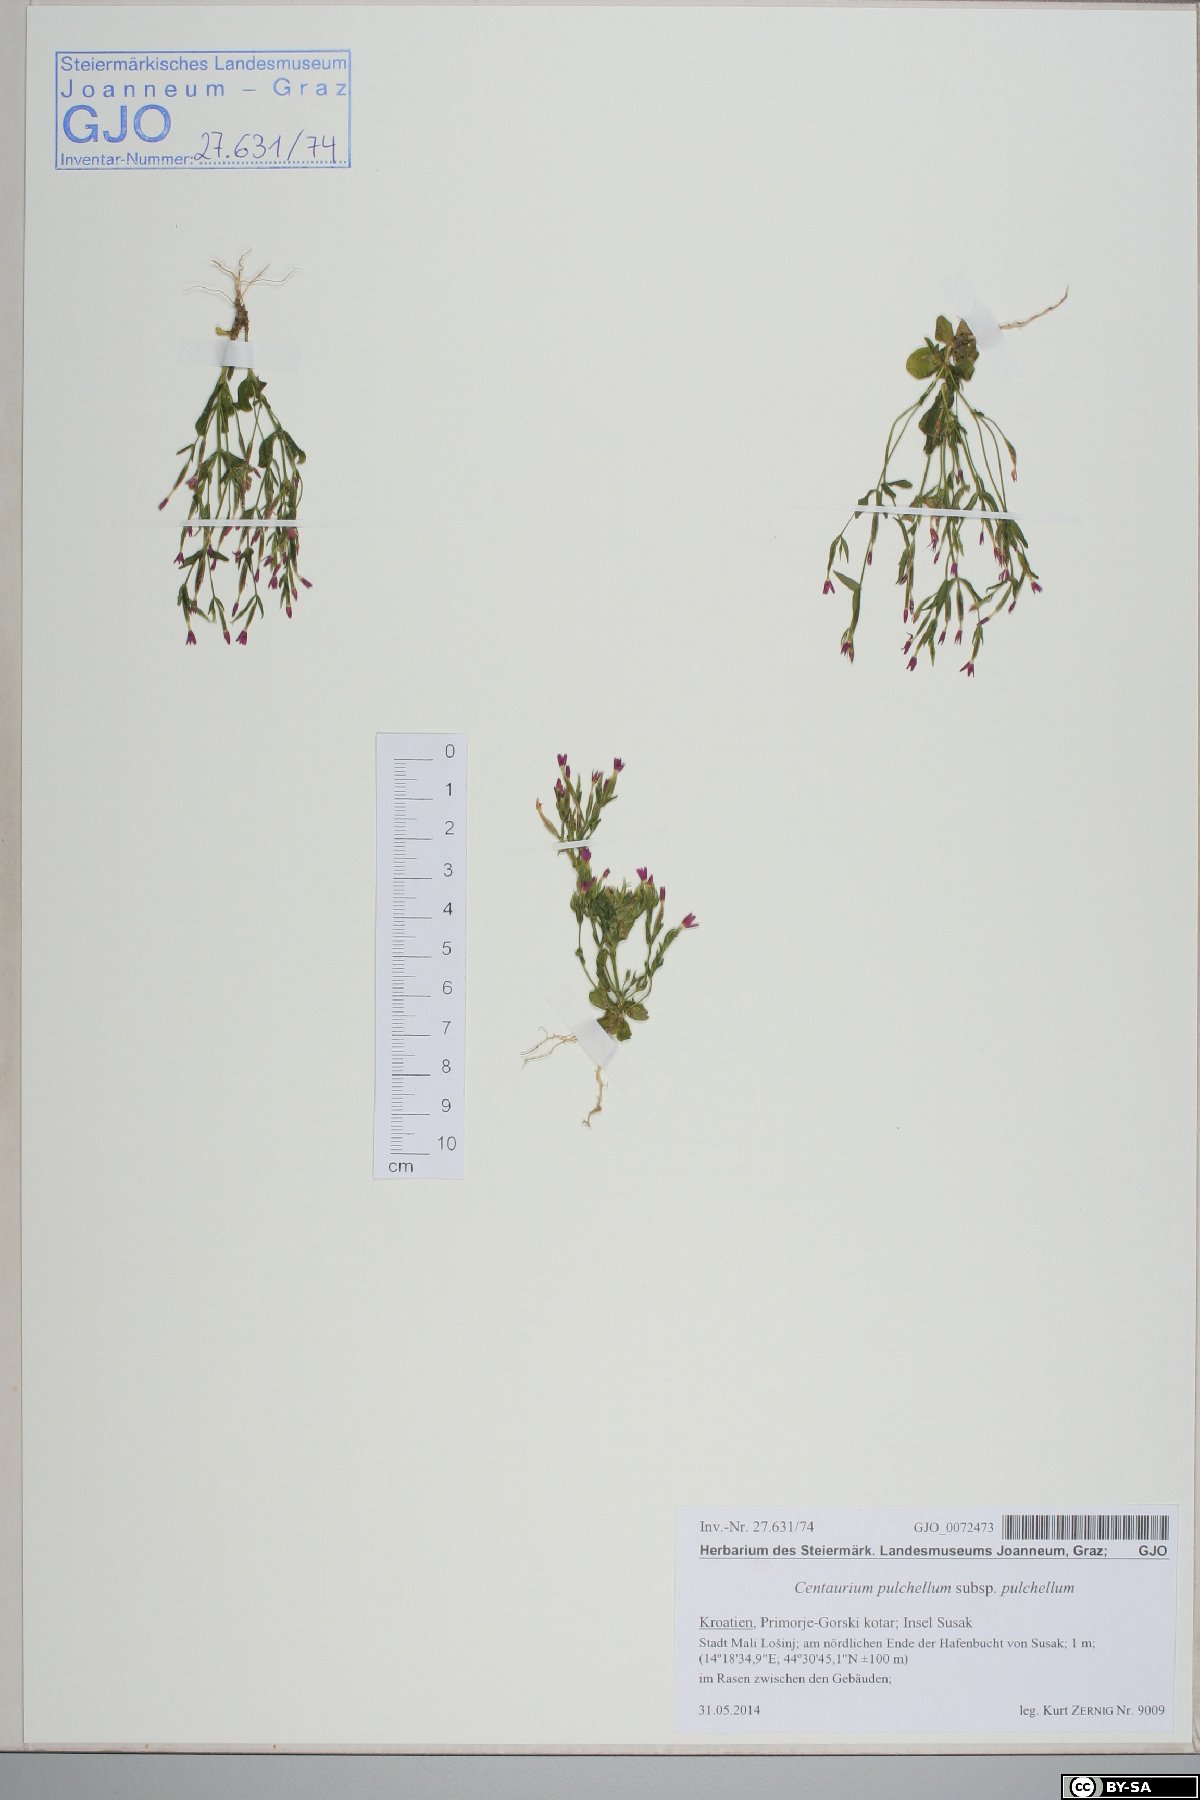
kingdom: Plantae
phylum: Tracheophyta
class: Magnoliopsida
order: Gentianales
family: Gentianaceae
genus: Centaurium
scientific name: Centaurium pulchellum
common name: Lesser centaury
